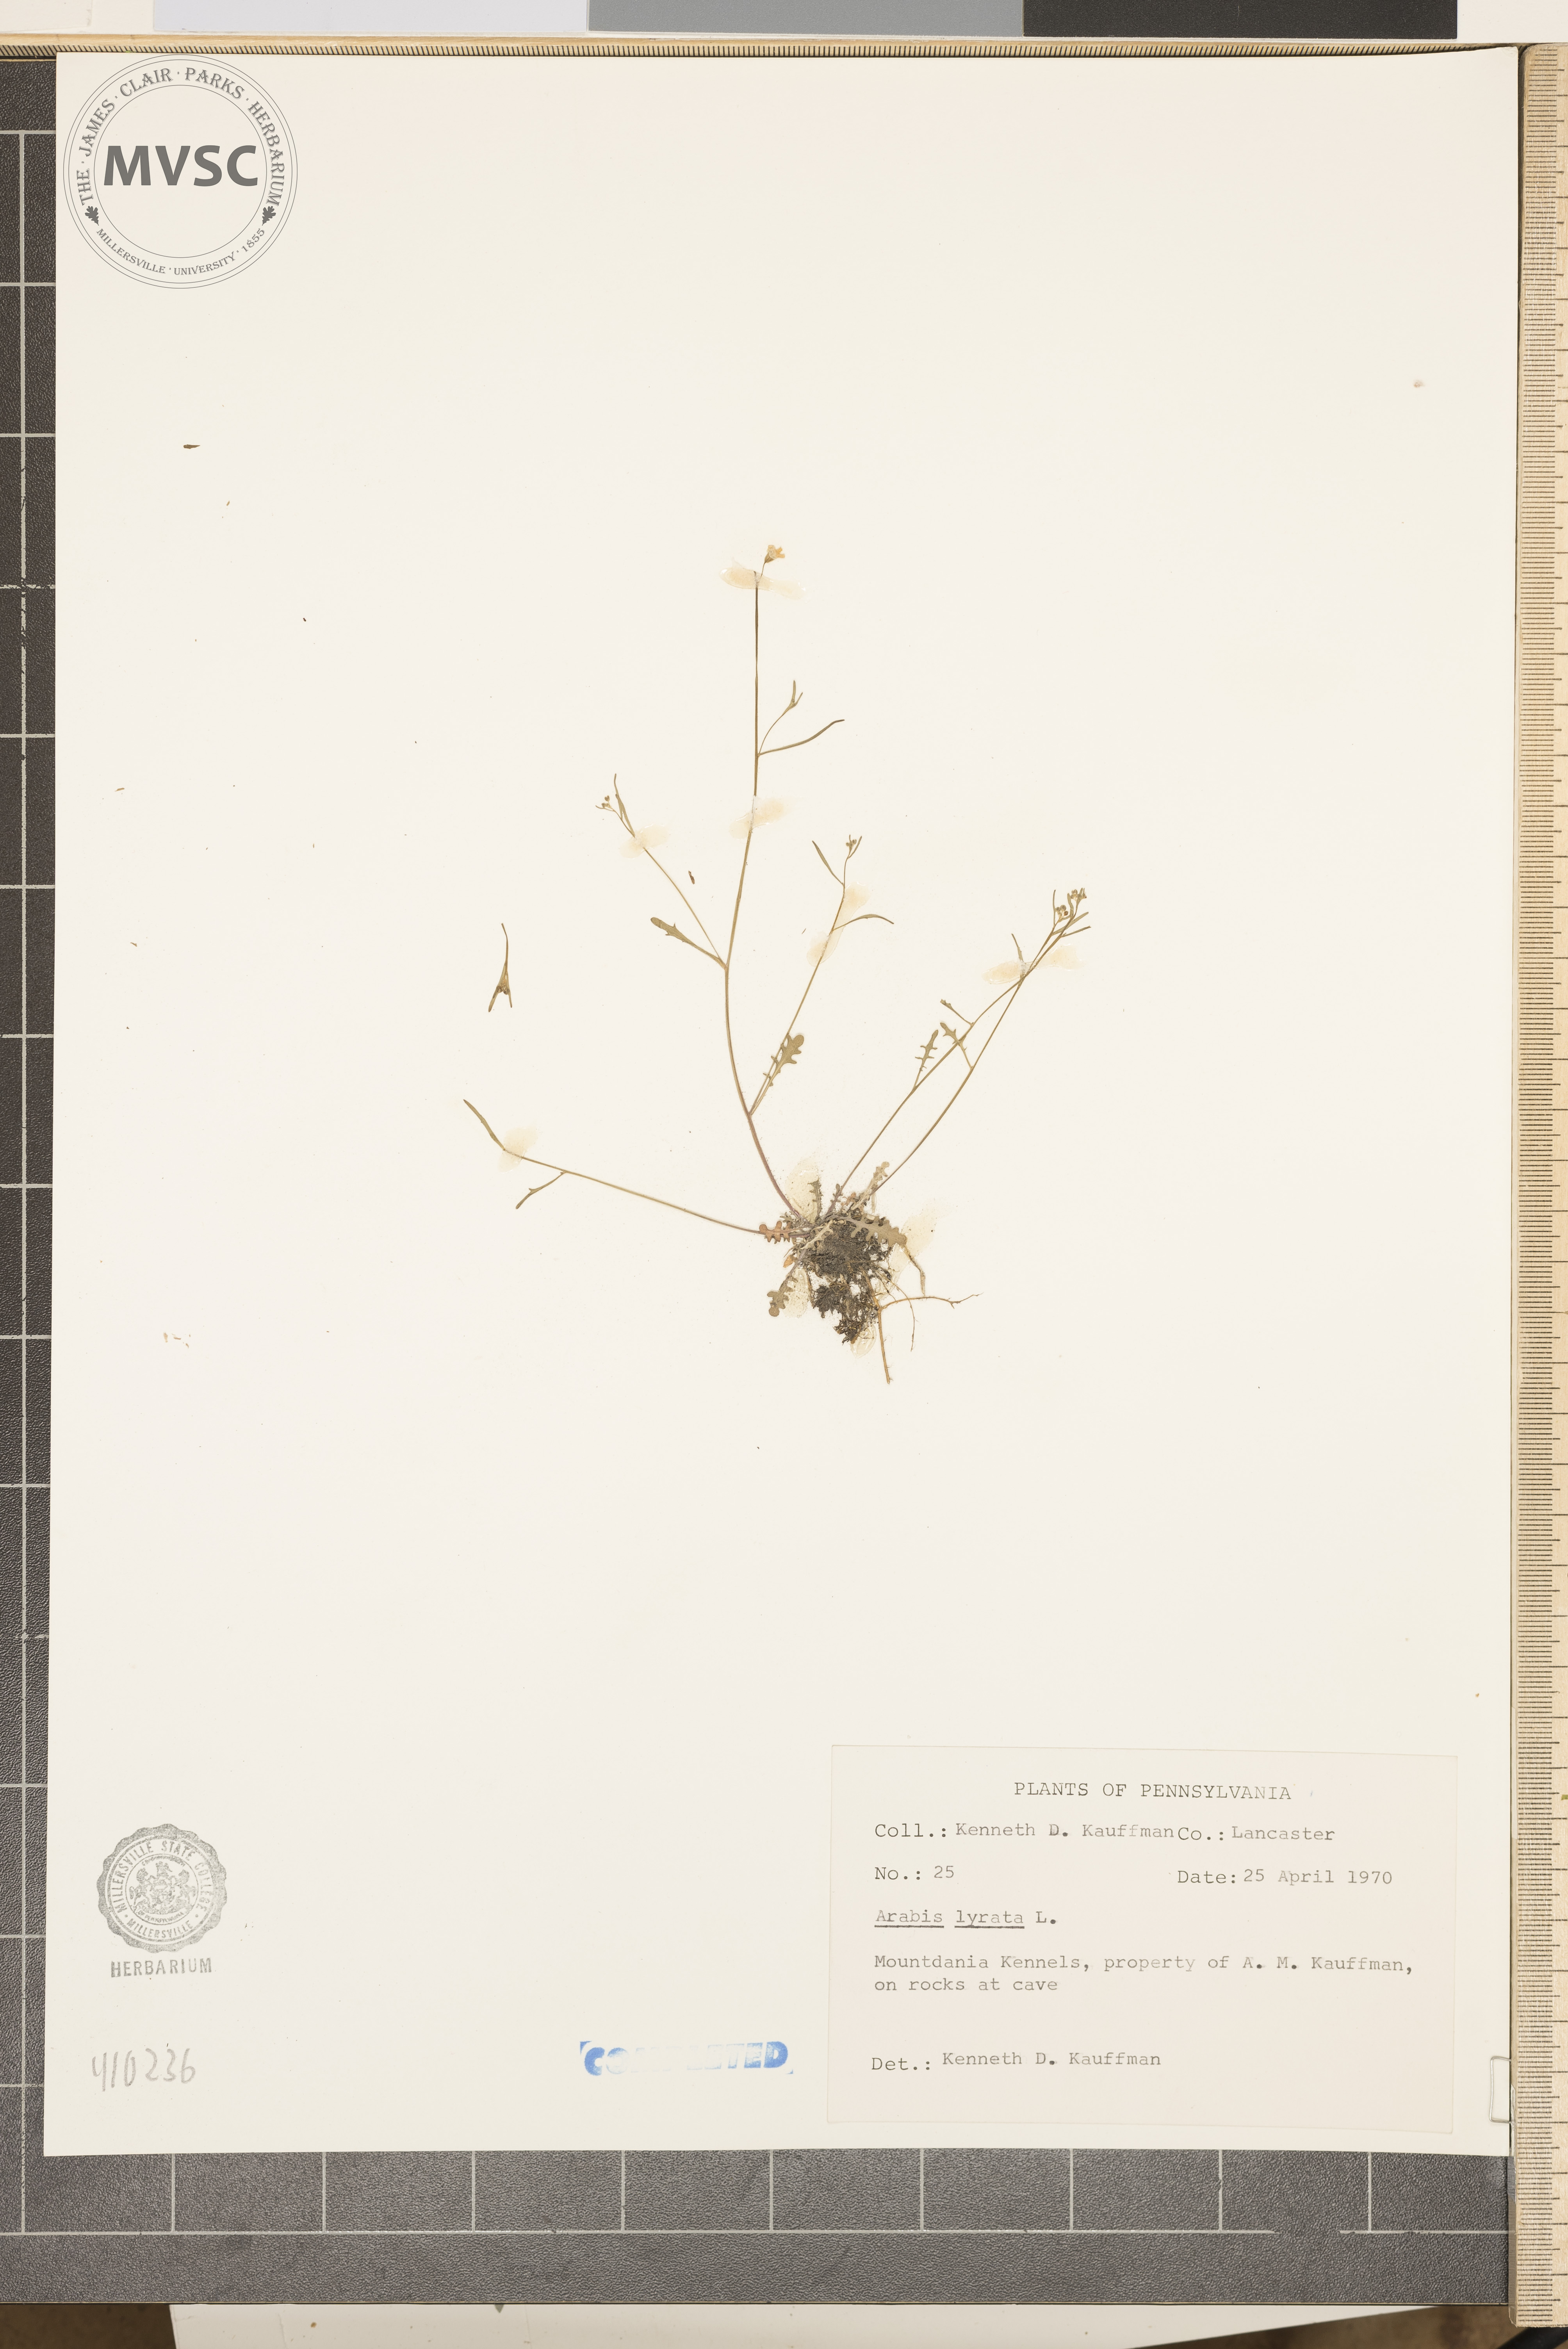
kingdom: Plantae
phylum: Tracheophyta
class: Magnoliopsida
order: Brassicales
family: Brassicaceae
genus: Arabidopsis
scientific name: Arabidopsis lyrata
